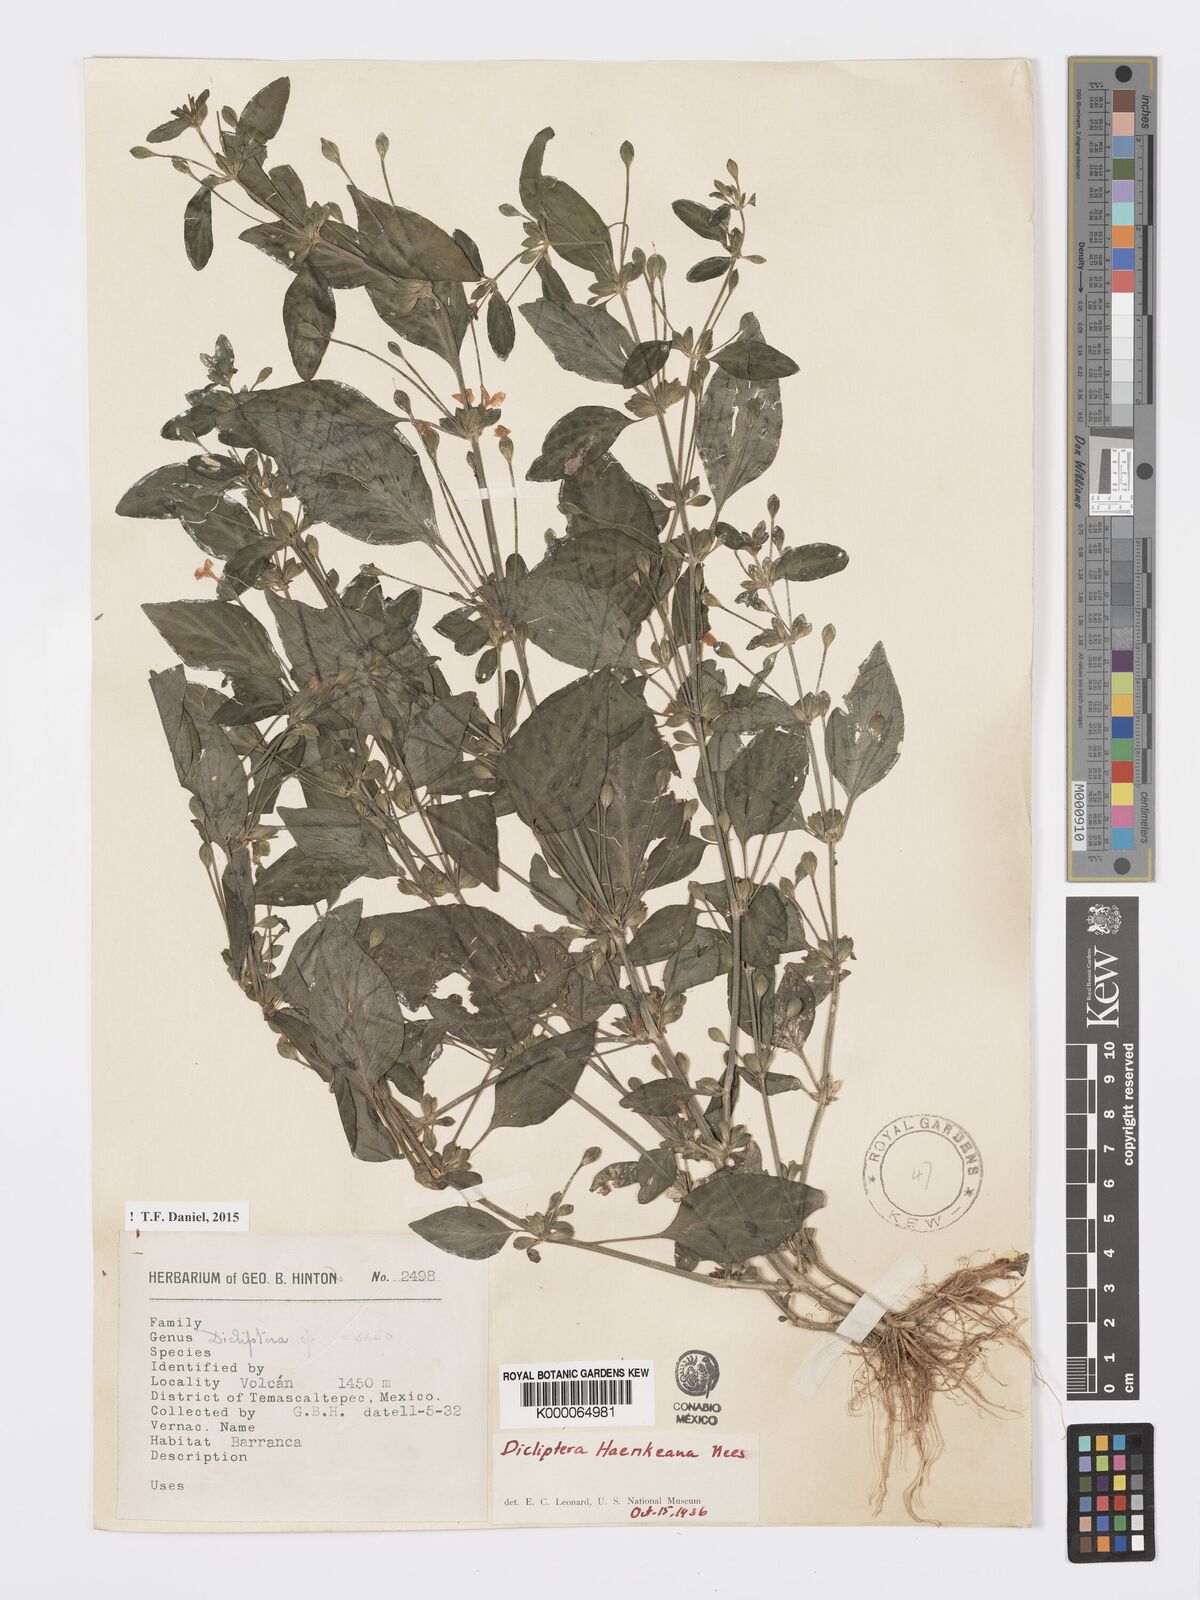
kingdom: Plantae
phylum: Tracheophyta
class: Magnoliopsida
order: Lamiales
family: Acanthaceae
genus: Dicliptera
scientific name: Dicliptera haenkeana
